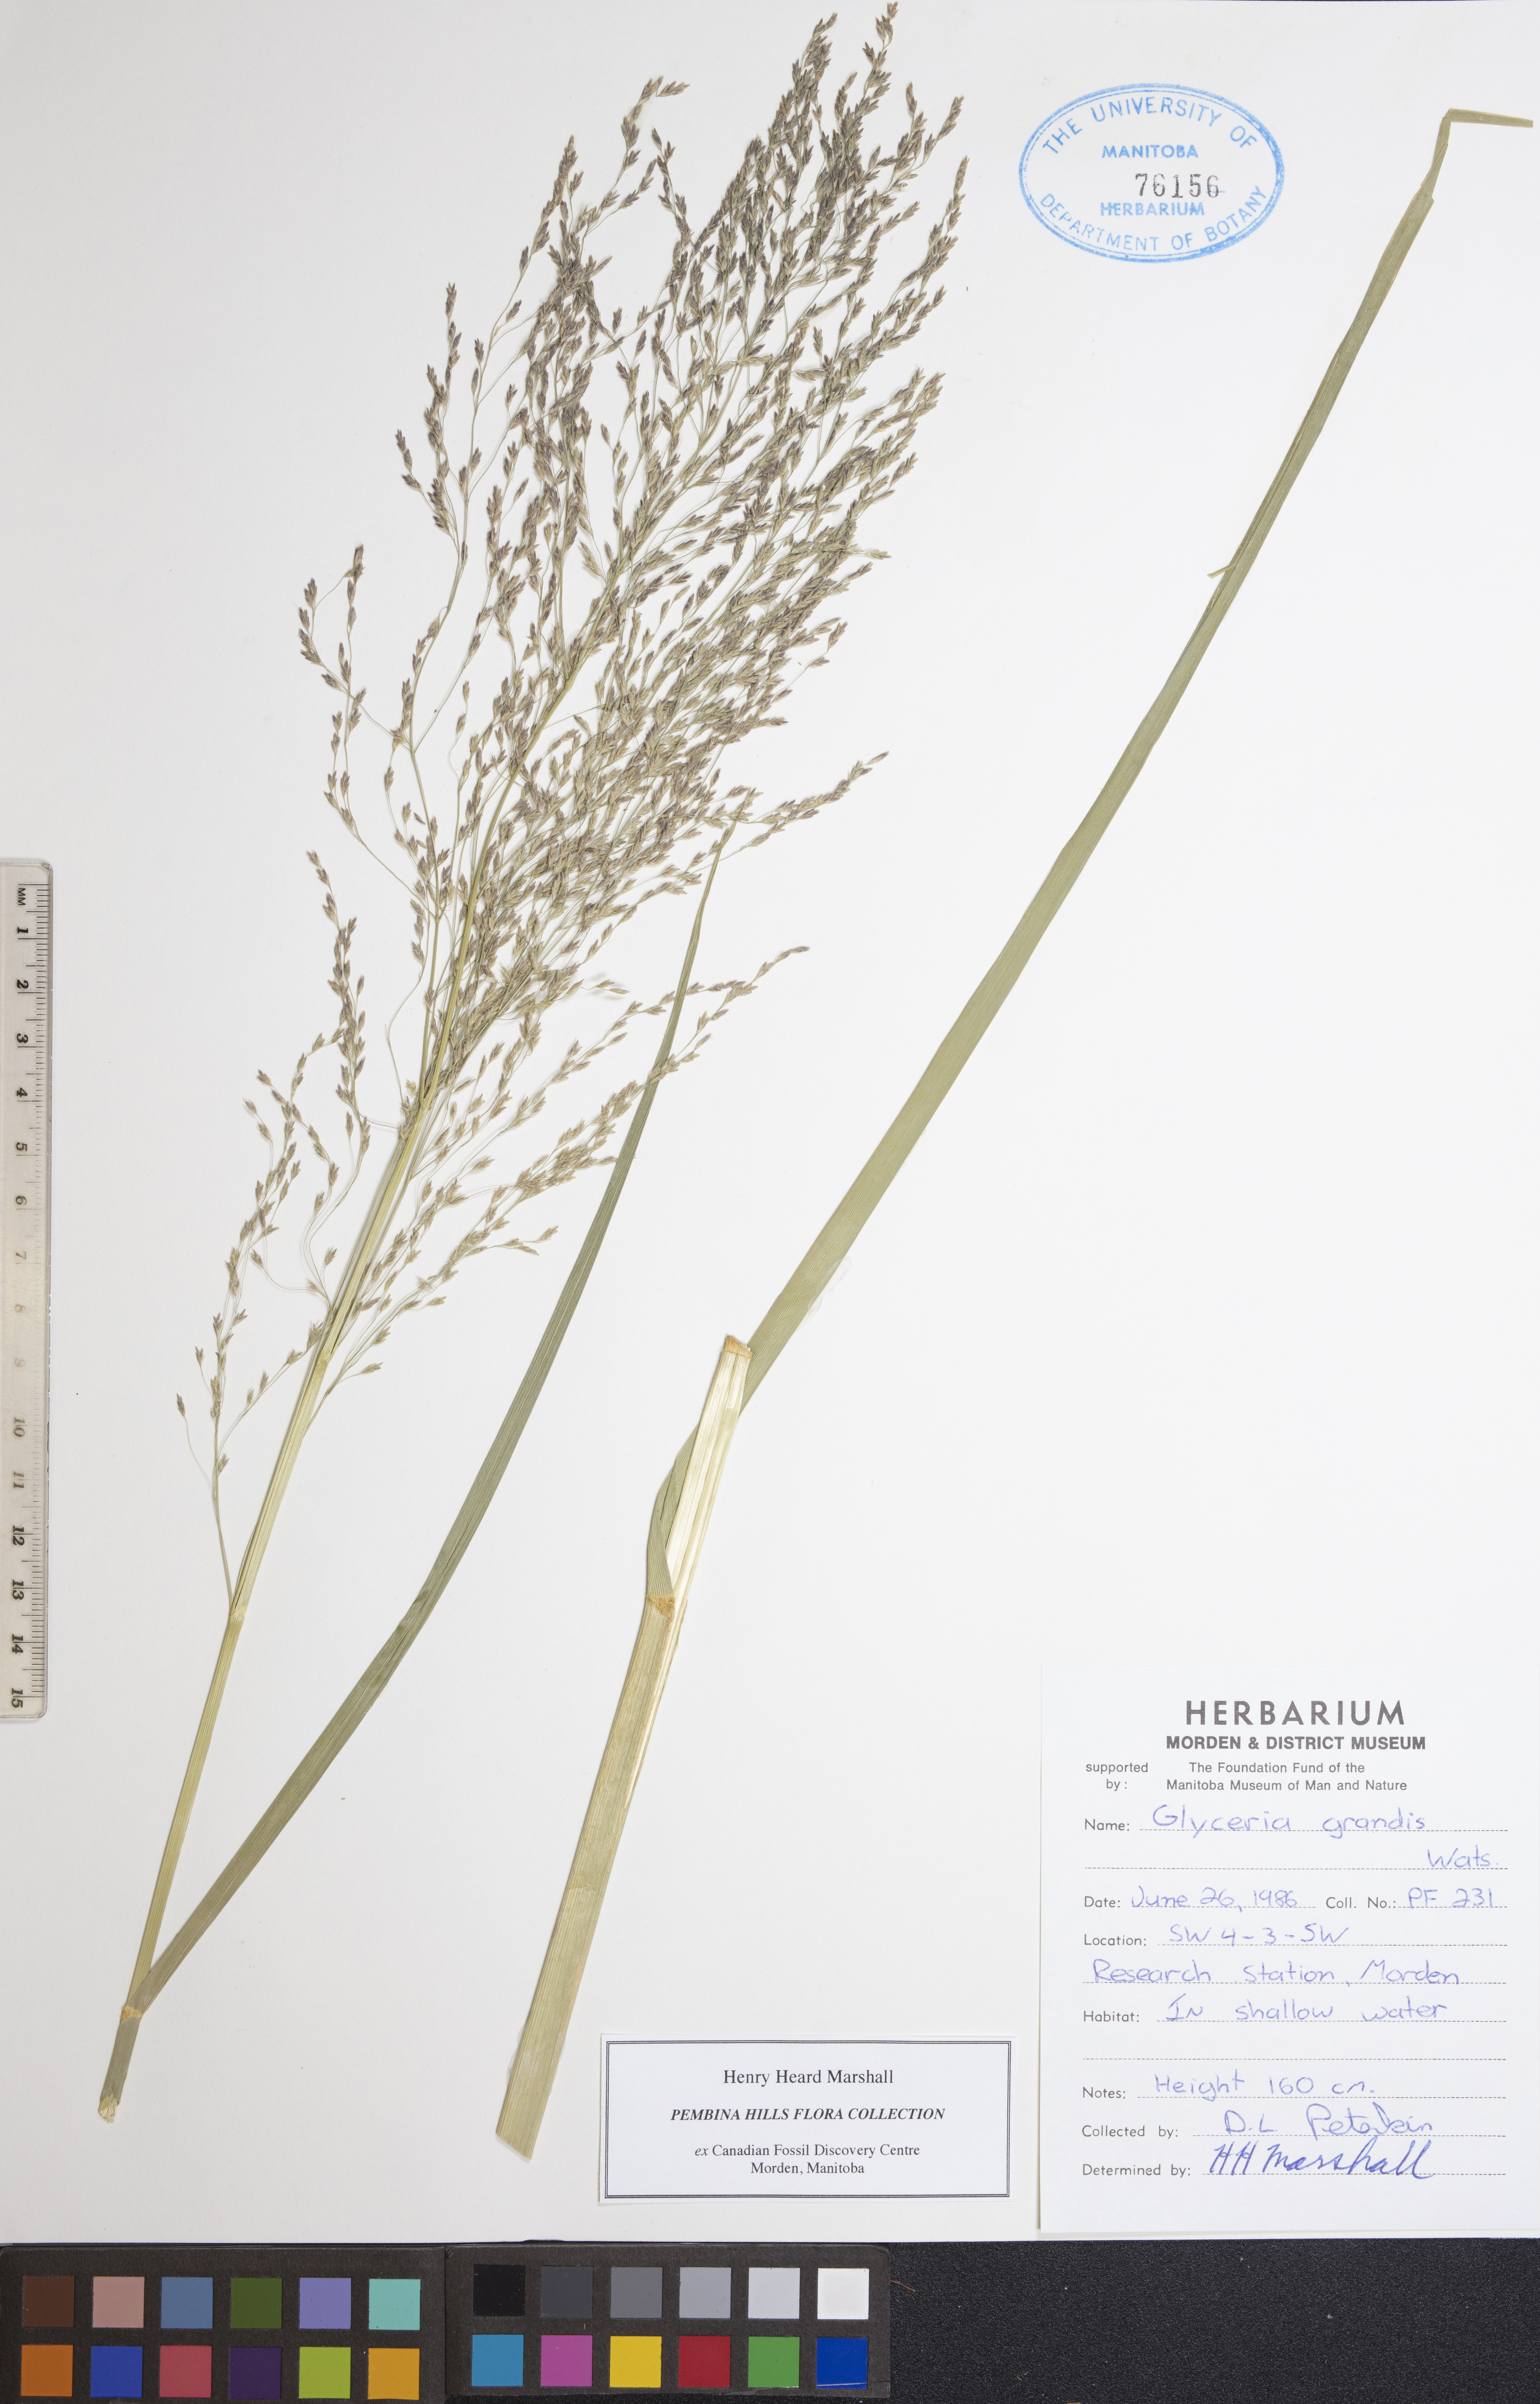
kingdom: Plantae
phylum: Tracheophyta
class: Liliopsida
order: Poales
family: Poaceae
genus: Glyceria
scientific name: Glyceria grandis
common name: American glyceria
